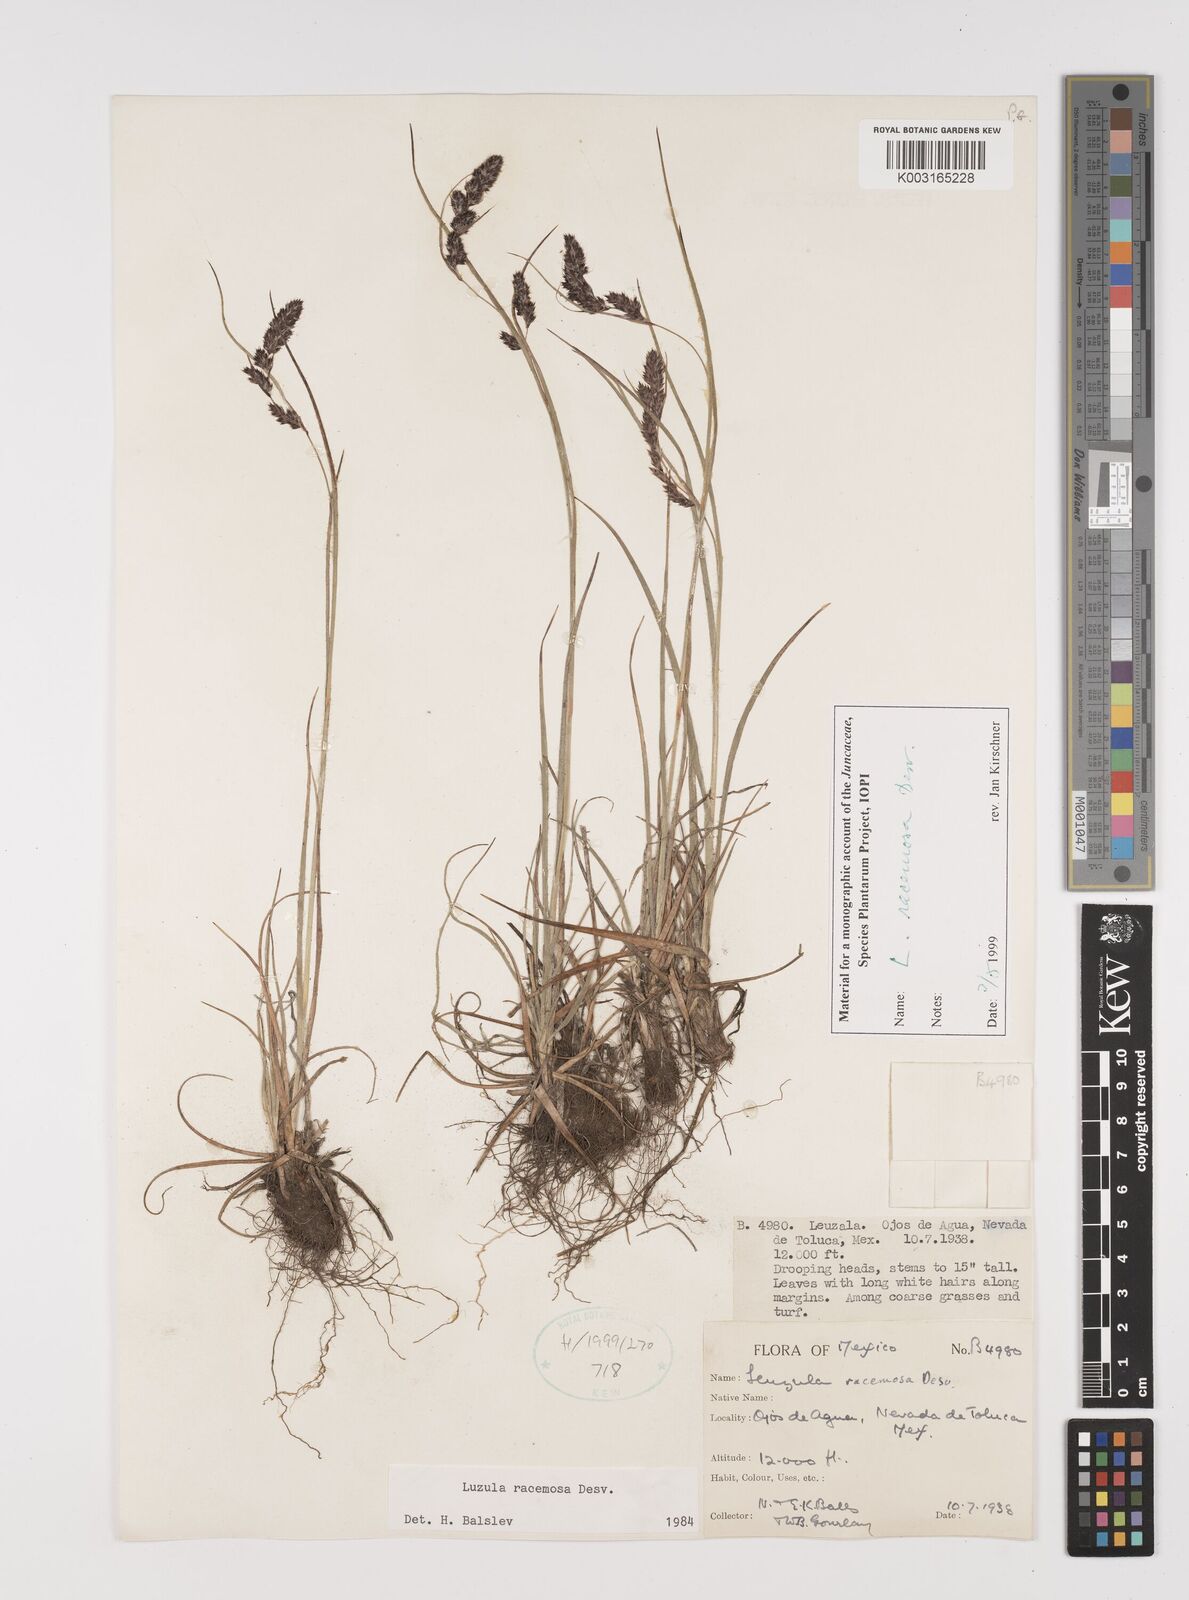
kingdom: Plantae
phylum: Tracheophyta
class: Liliopsida
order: Poales
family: Juncaceae
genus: Luzula
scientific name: Luzula racemosa
